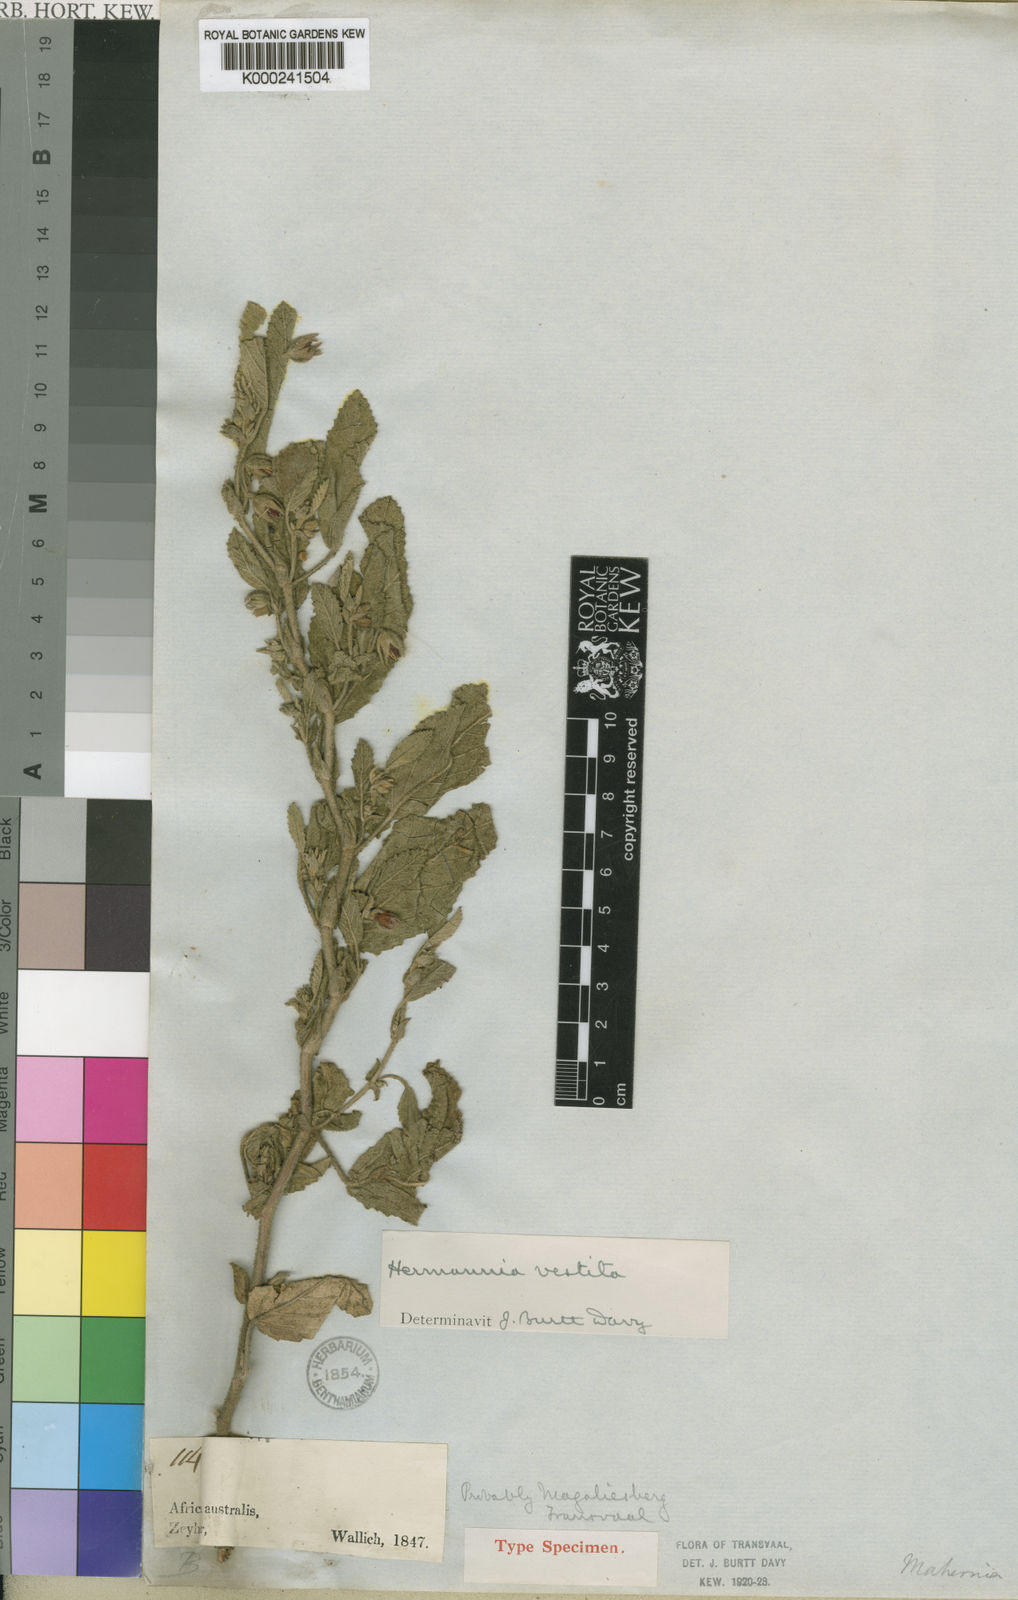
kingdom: Plantae
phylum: Tracheophyta
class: Magnoliopsida
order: Malvales
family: Malvaceae
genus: Hermannia
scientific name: Hermannia
